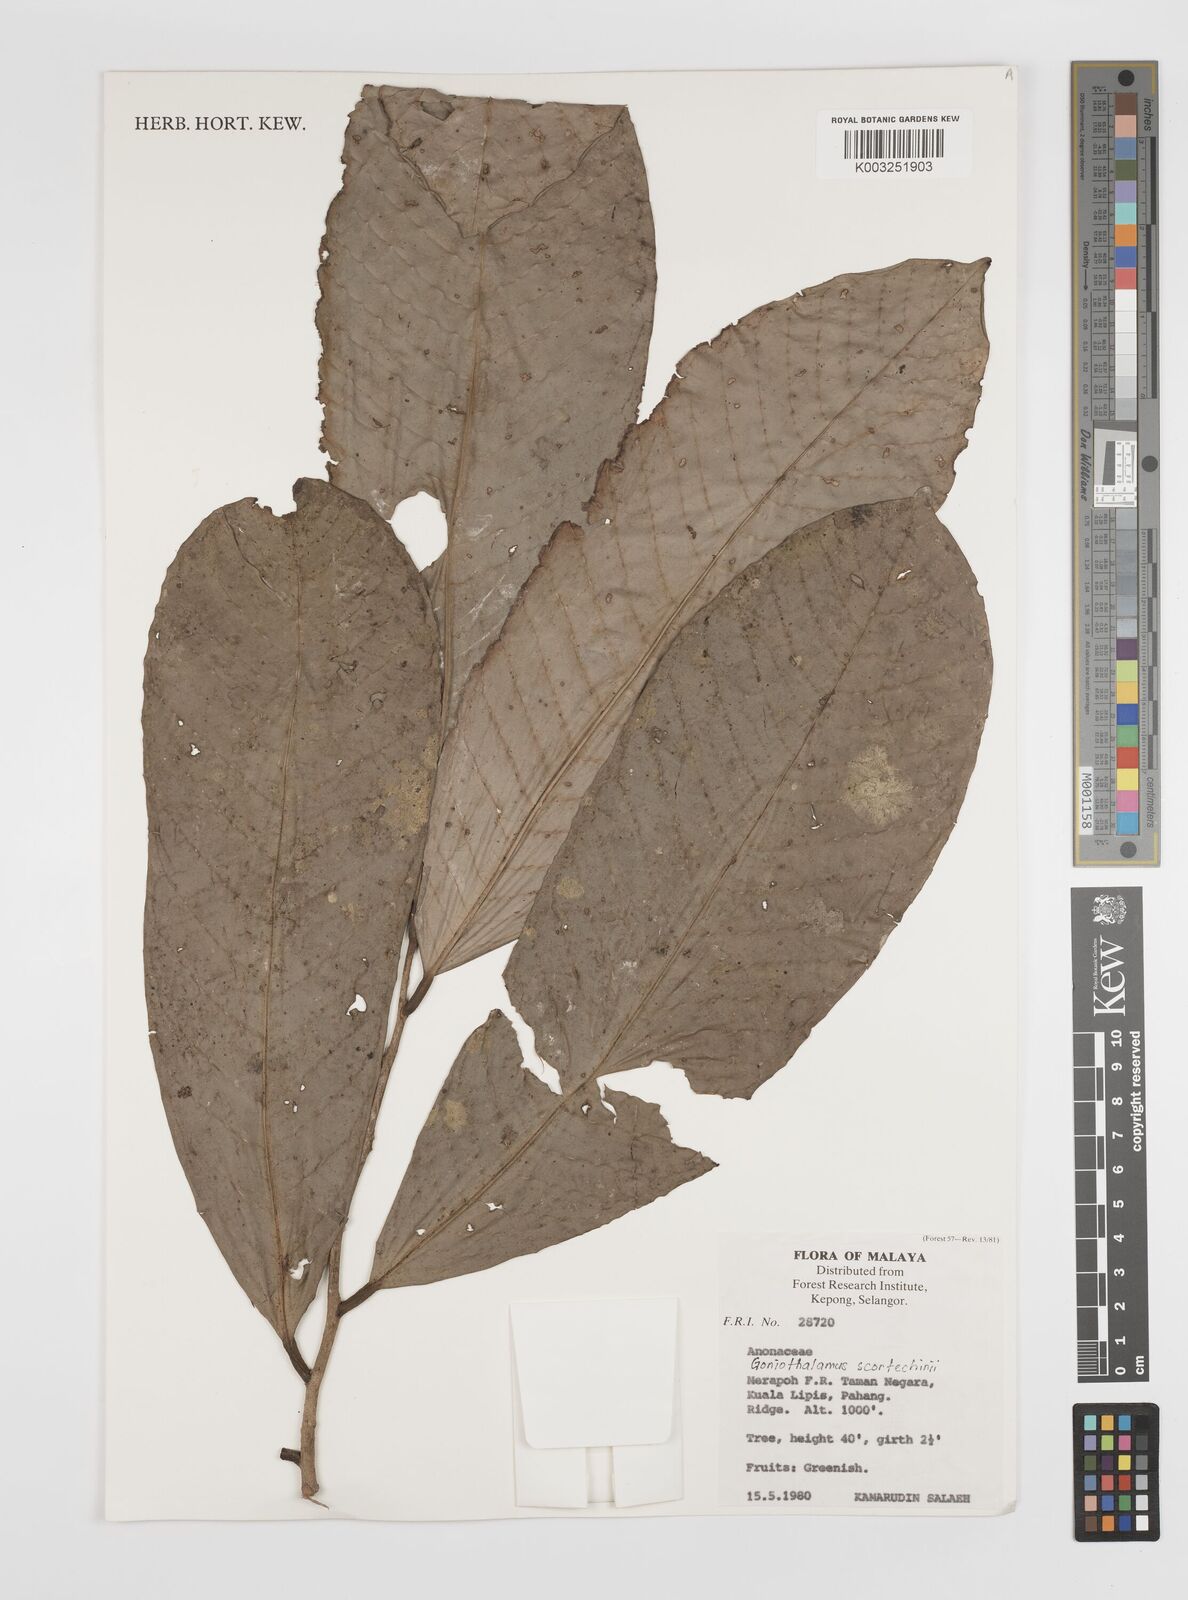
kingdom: Plantae
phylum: Tracheophyta
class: Magnoliopsida
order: Magnoliales
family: Annonaceae
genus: Goniothalamus
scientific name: Goniothalamus scortechinii
